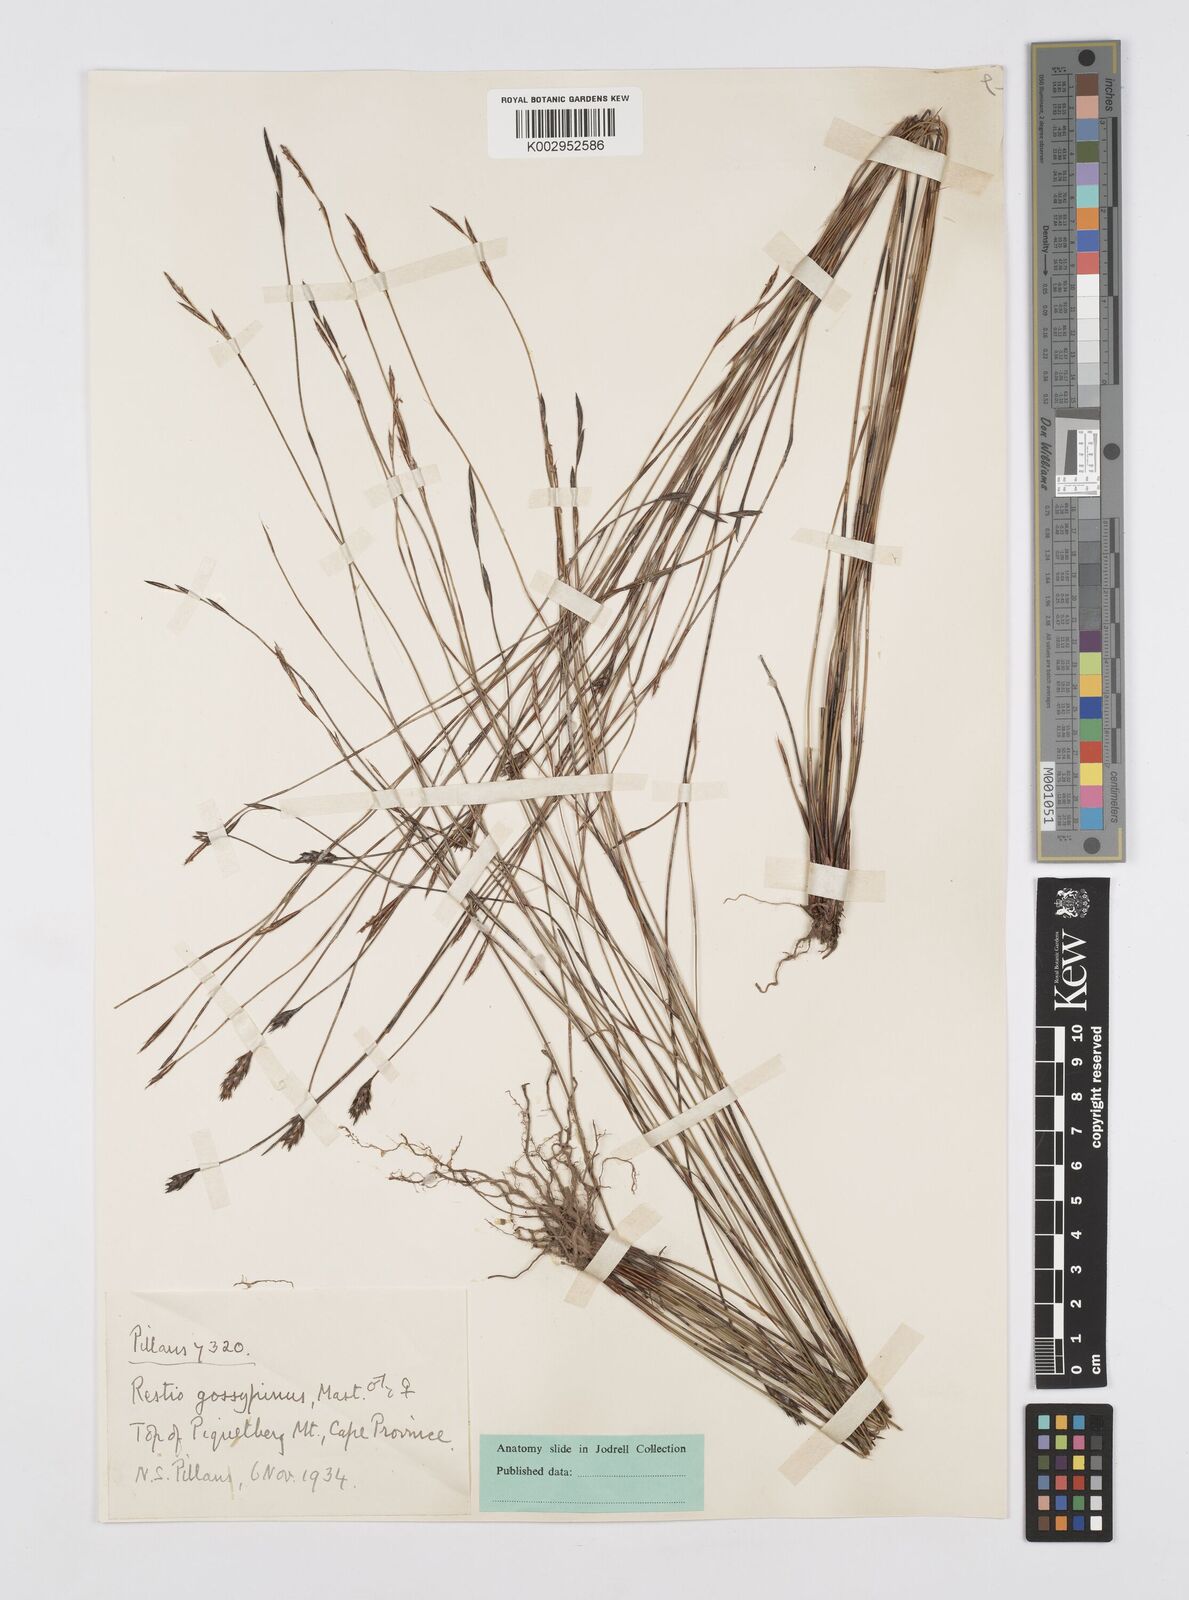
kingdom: Plantae
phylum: Tracheophyta
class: Liliopsida
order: Poales
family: Restionaceae
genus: Restio
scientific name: Restio gossypinus
